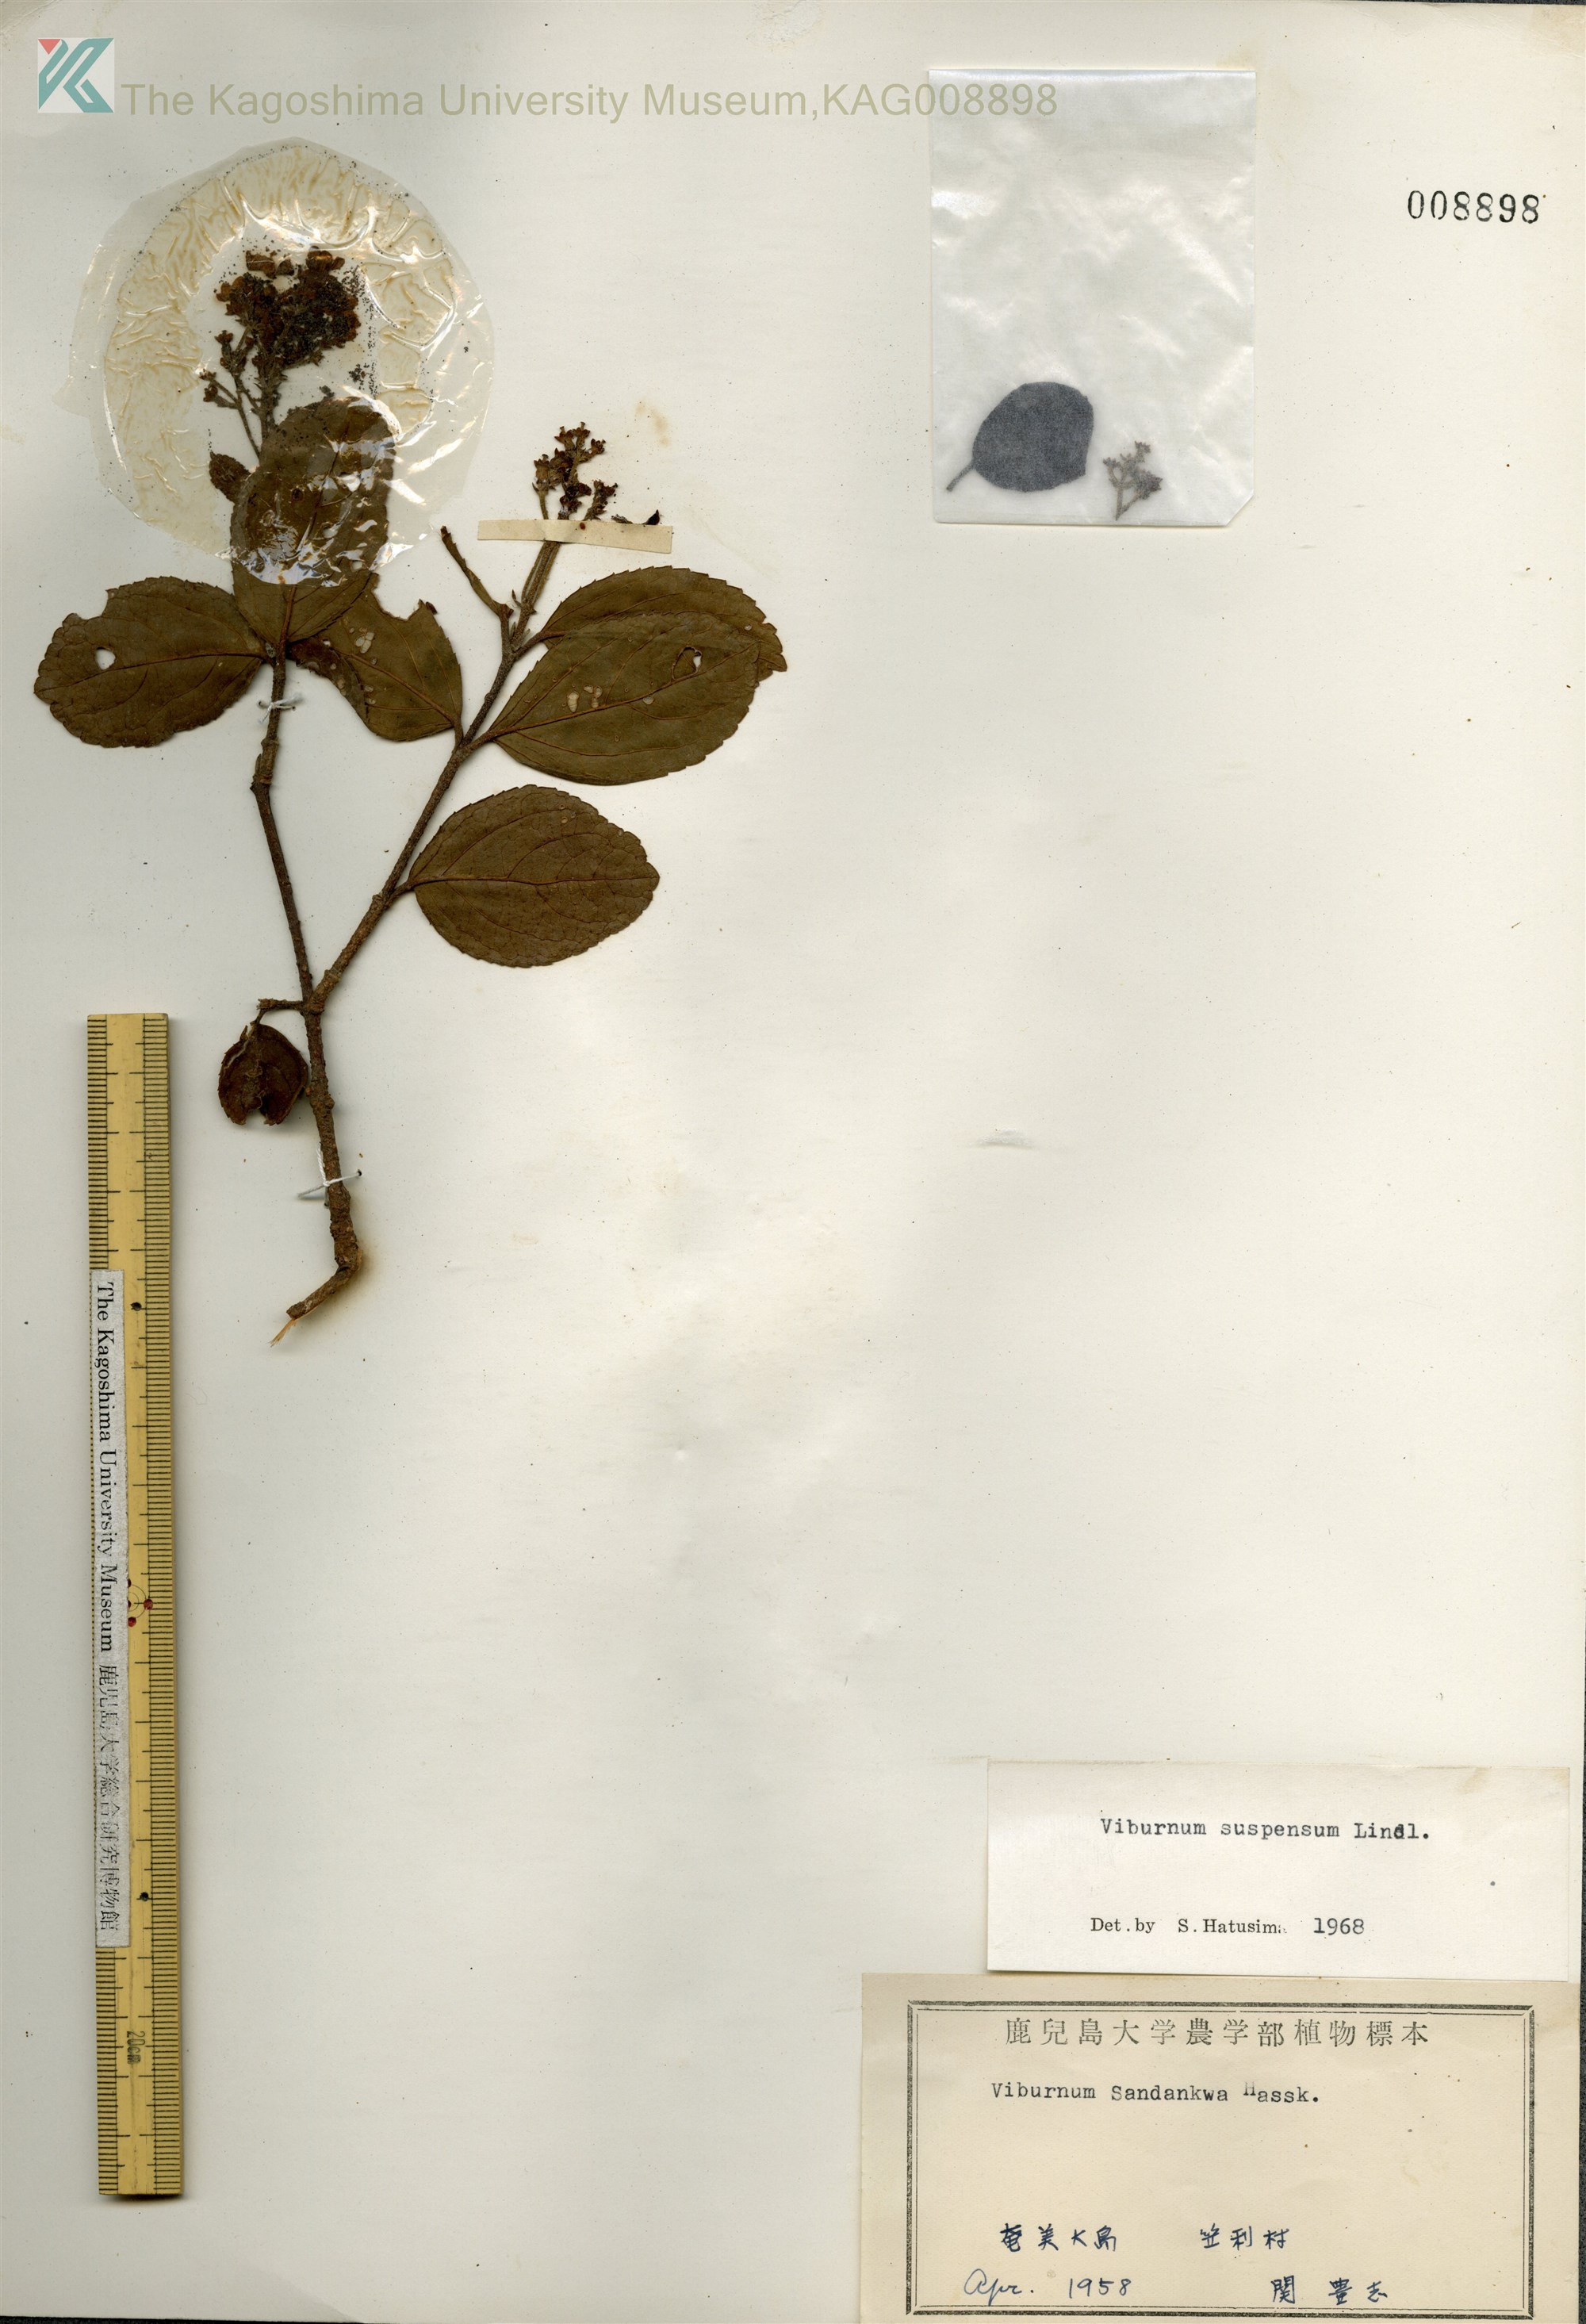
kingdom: Plantae
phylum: Tracheophyta
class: Magnoliopsida
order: Dipsacales
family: Viburnaceae
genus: Viburnum
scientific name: Viburnum suspensum
